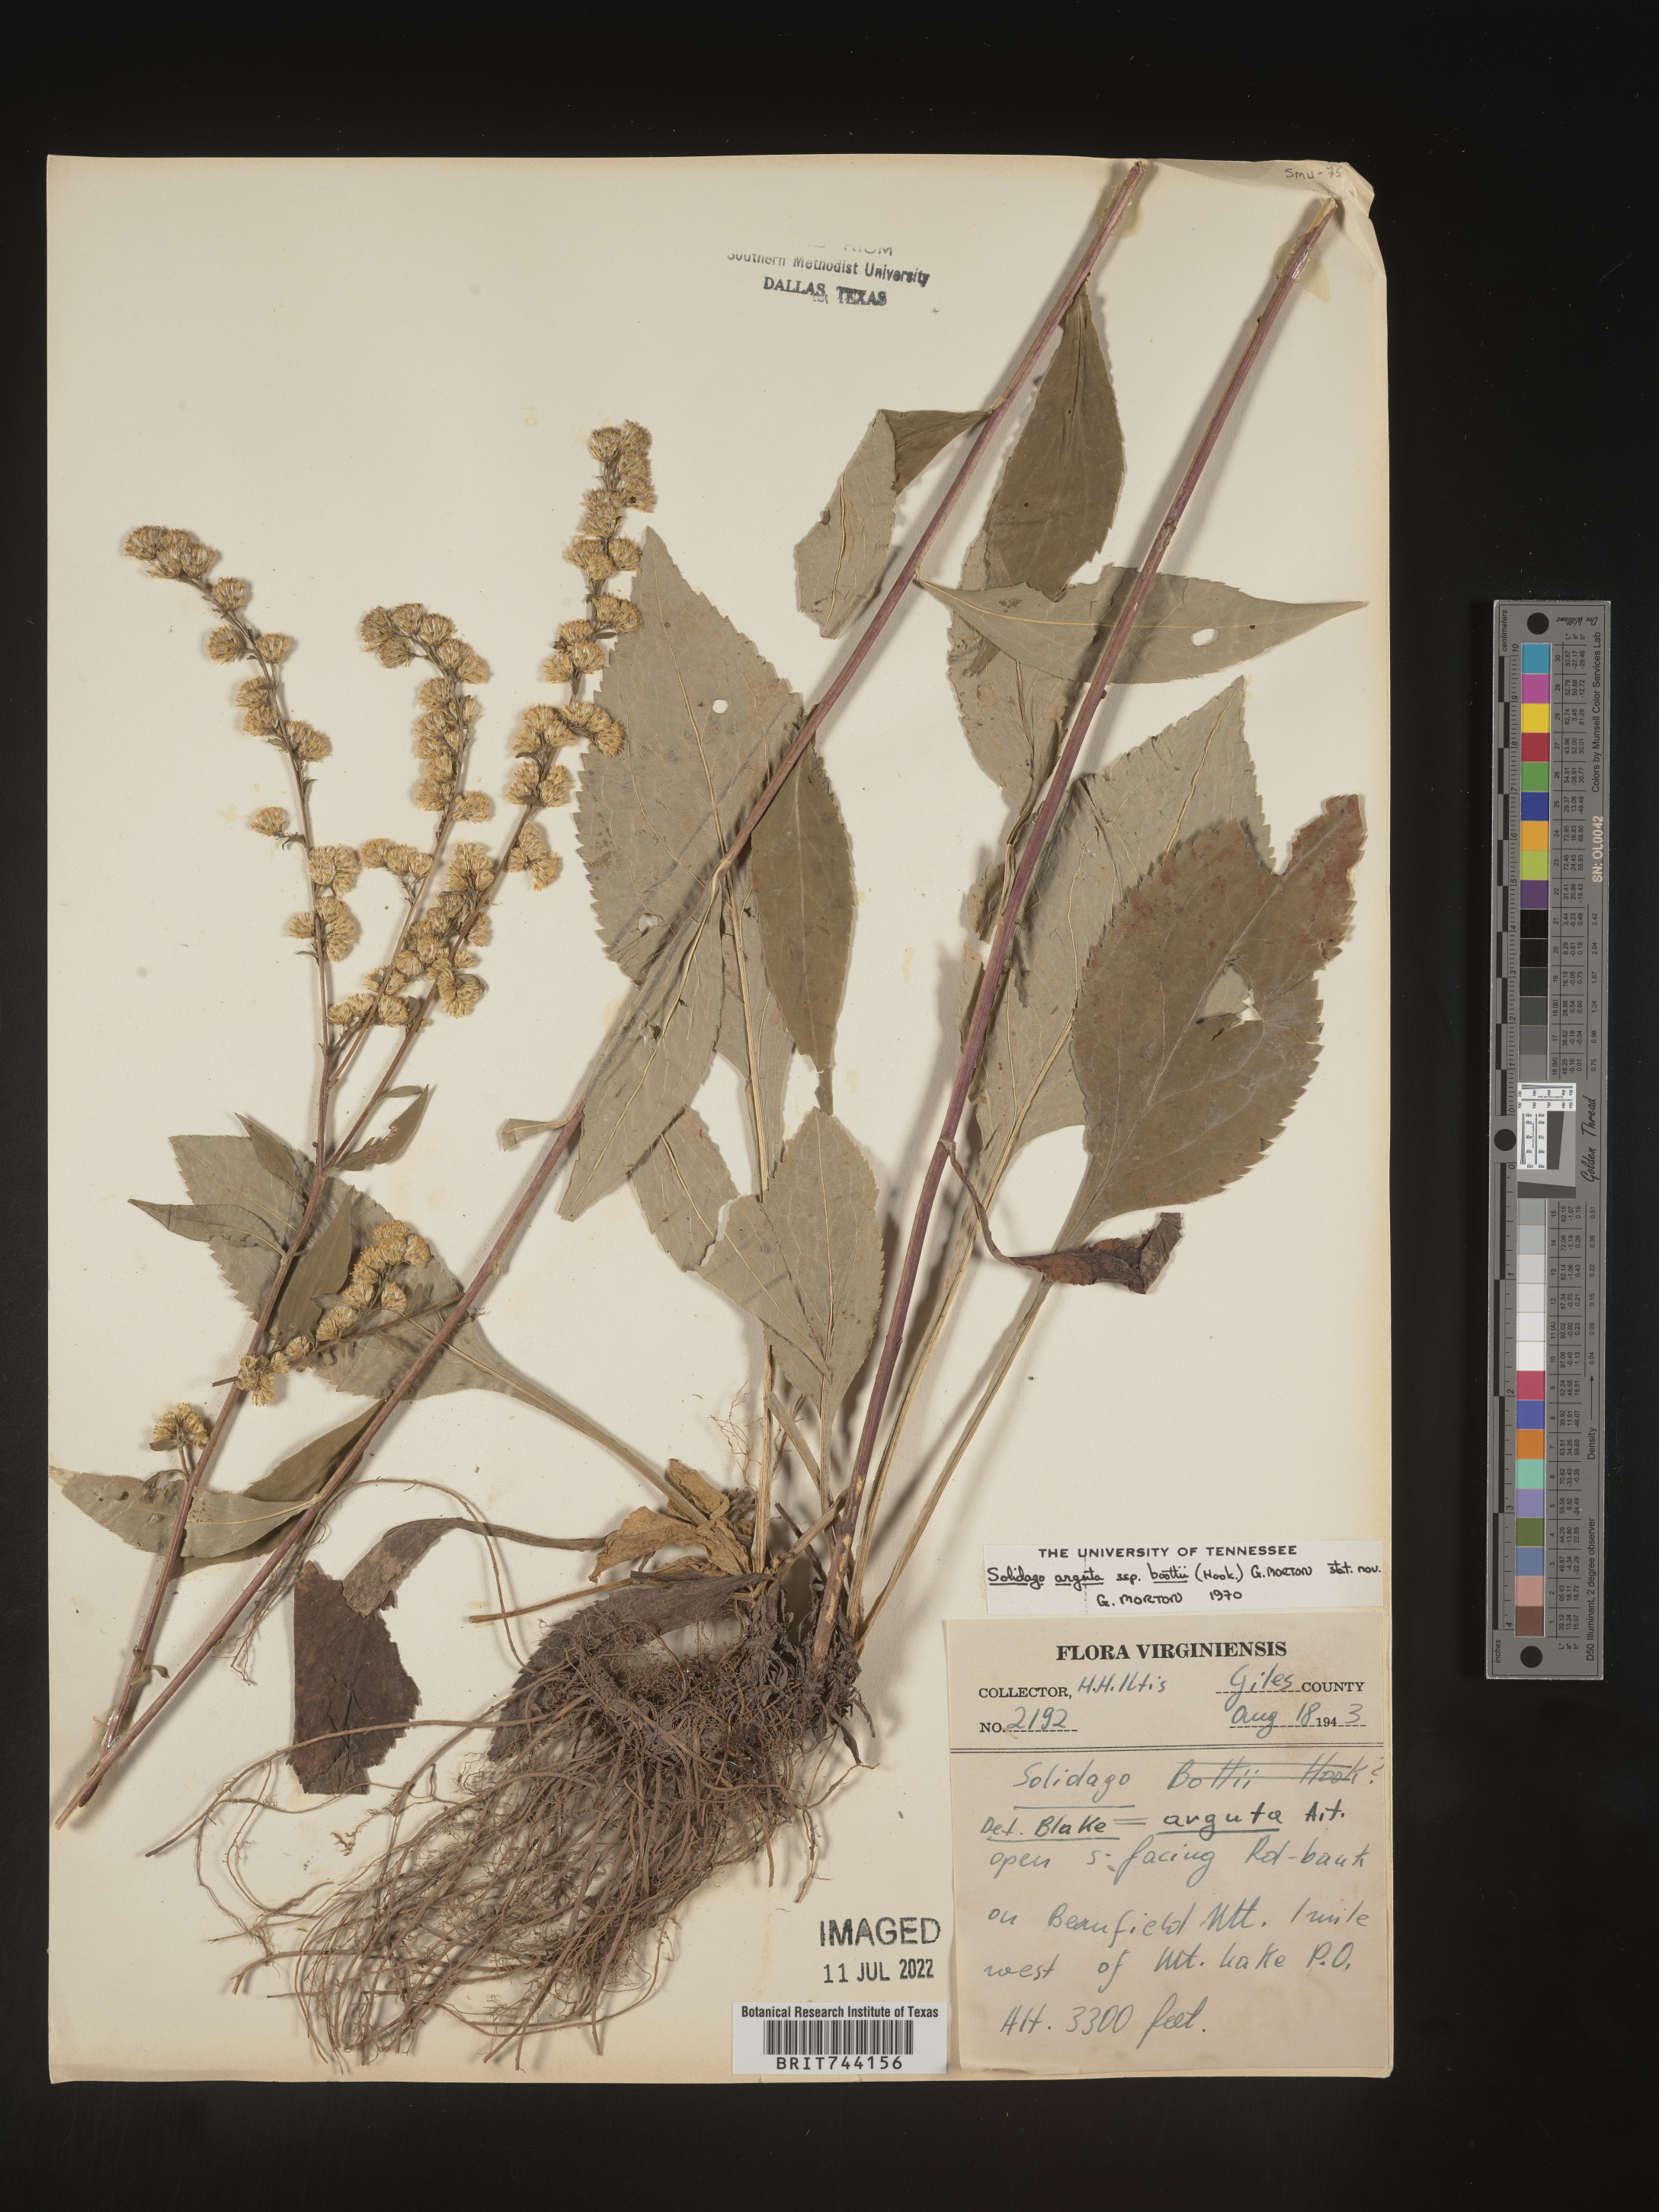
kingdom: Plantae
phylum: Tracheophyta
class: Magnoliopsida
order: Asterales
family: Asteraceae
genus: Solidago
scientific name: Solidago arguta
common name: Atlantic goldenrod
